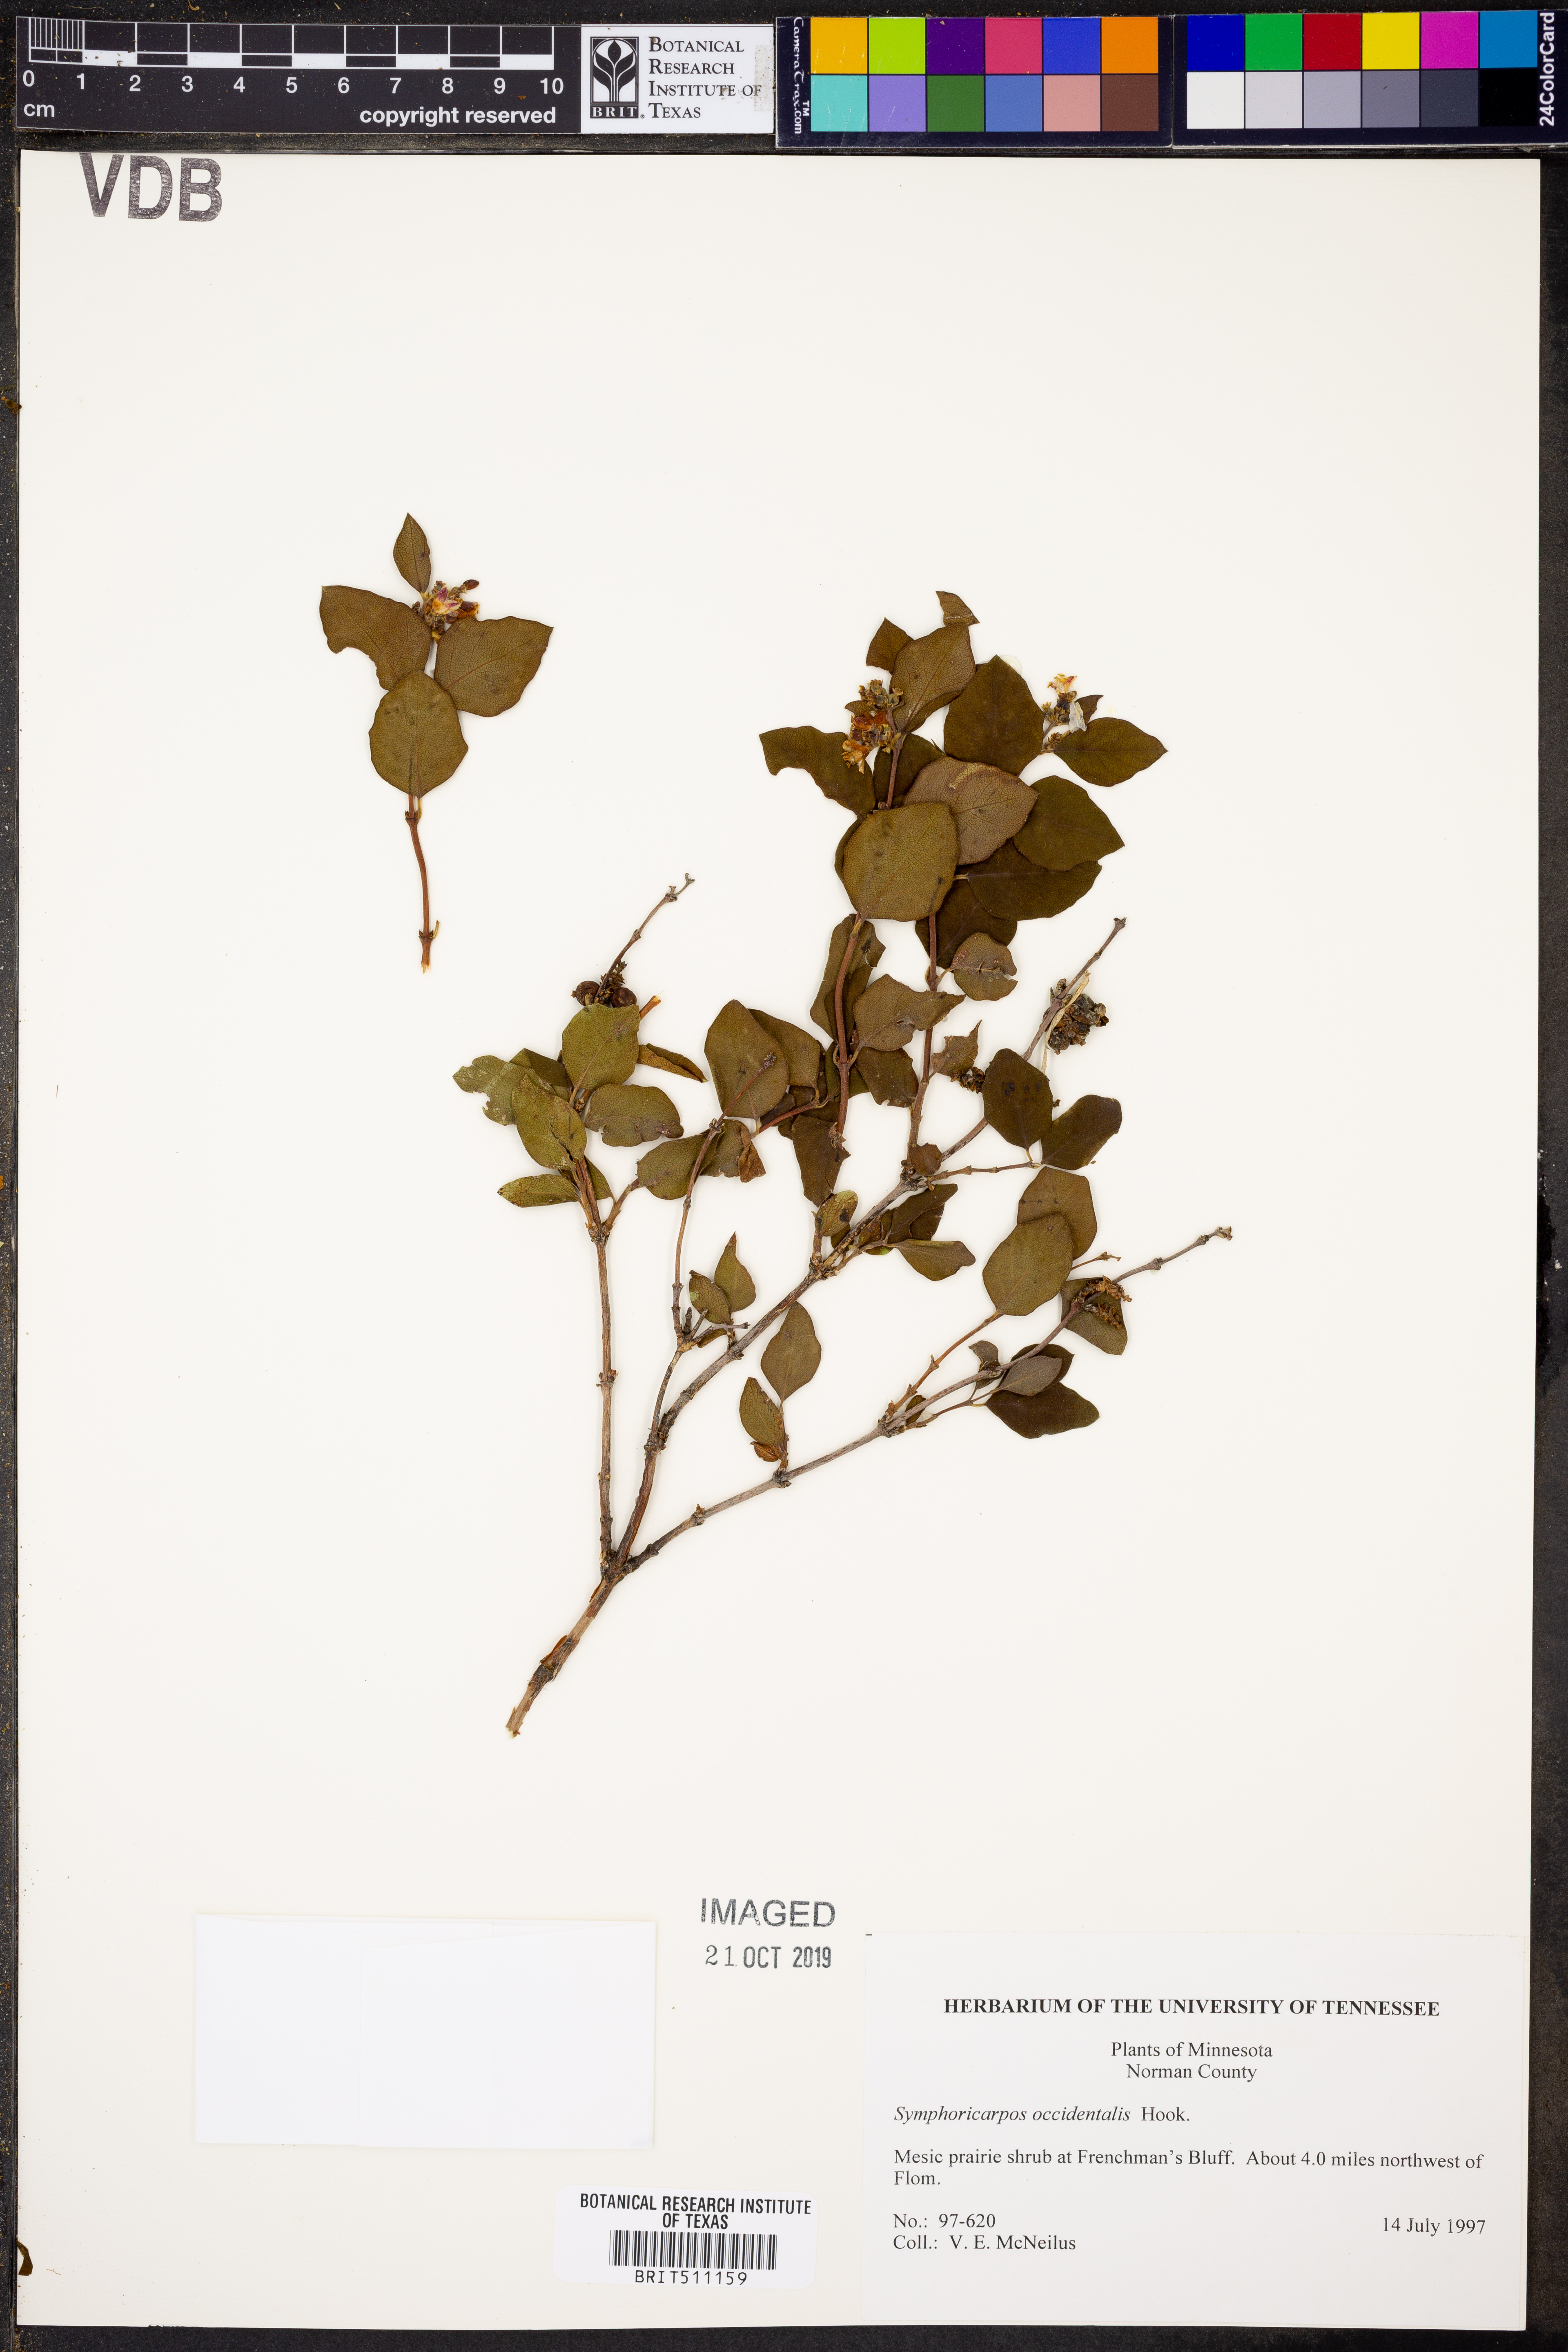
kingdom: Plantae
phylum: Tracheophyta
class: Magnoliopsida
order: Dipsacales
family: Caprifoliaceae
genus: Symphoricarpos
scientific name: Symphoricarpos occidentalis
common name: Wolfberry
